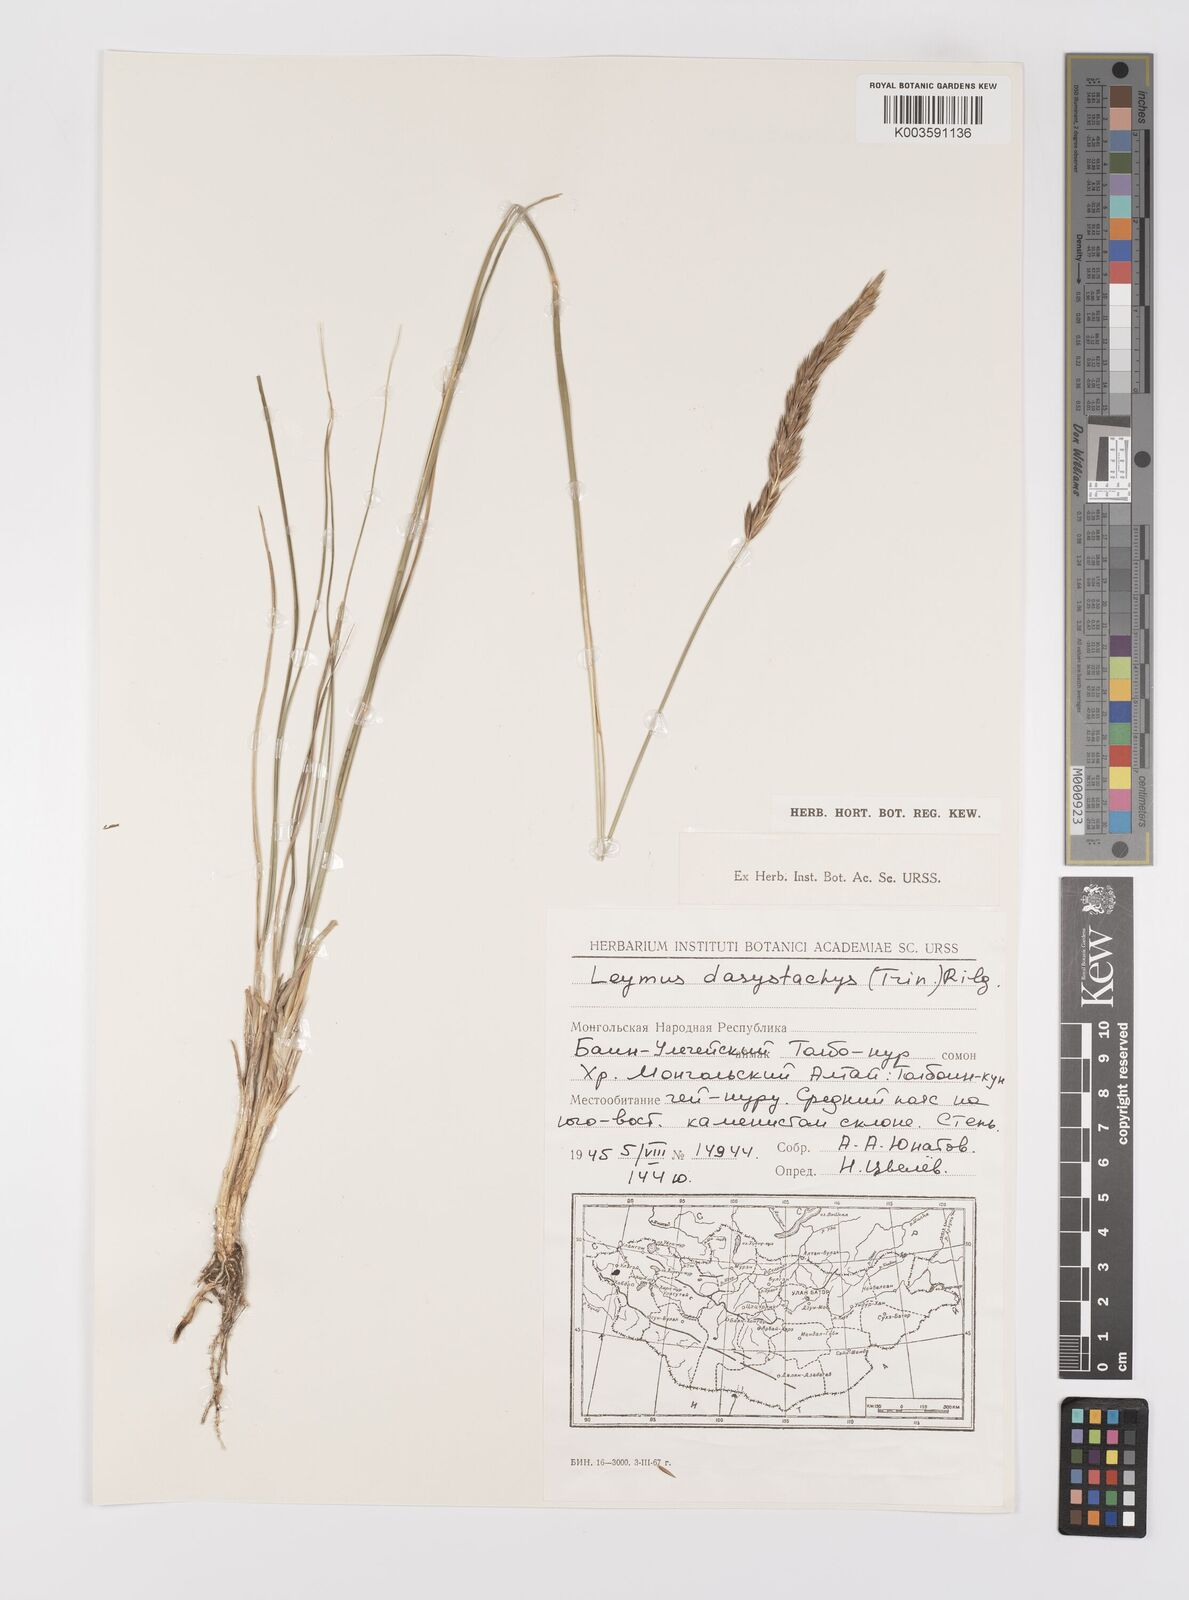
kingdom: Plantae
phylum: Tracheophyta
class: Liliopsida
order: Poales
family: Poaceae
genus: Leymus
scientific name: Leymus secalinus
